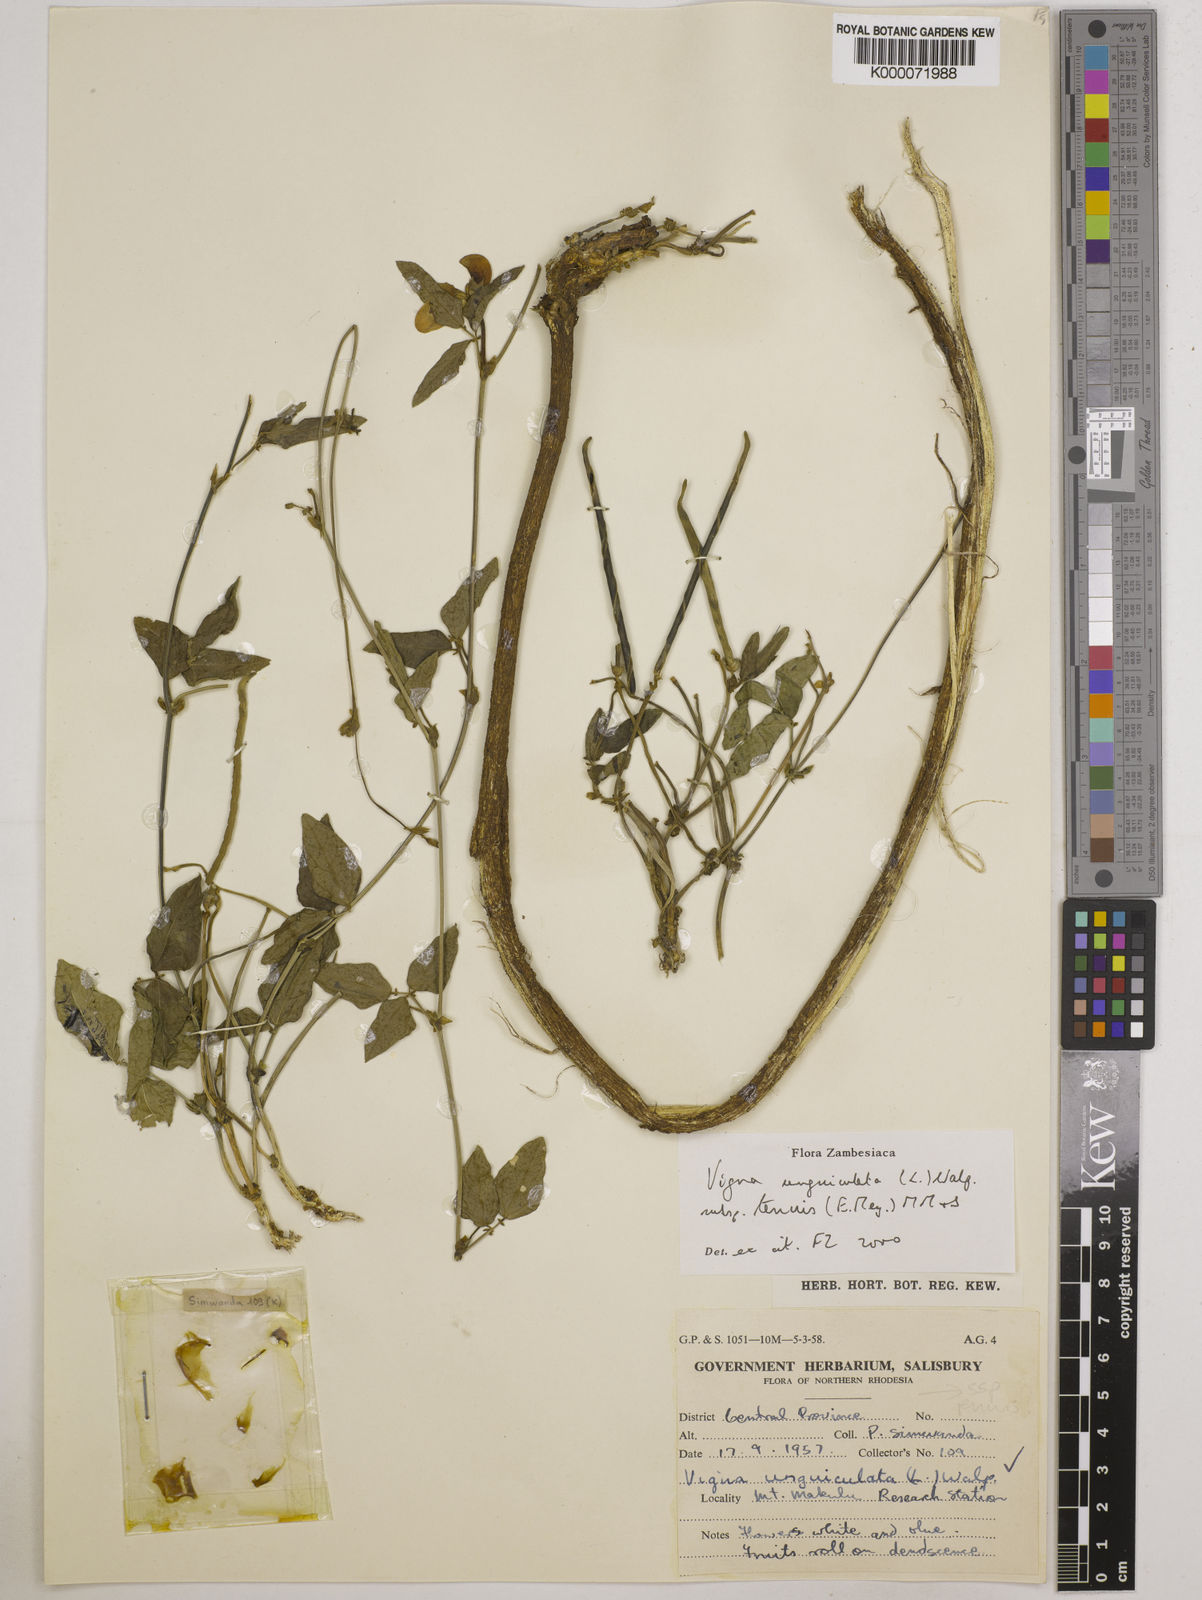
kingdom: Plantae
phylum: Tracheophyta
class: Magnoliopsida
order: Fabales
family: Fabaceae
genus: Vigna
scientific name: Vigna unguiculata
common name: Cowpea
